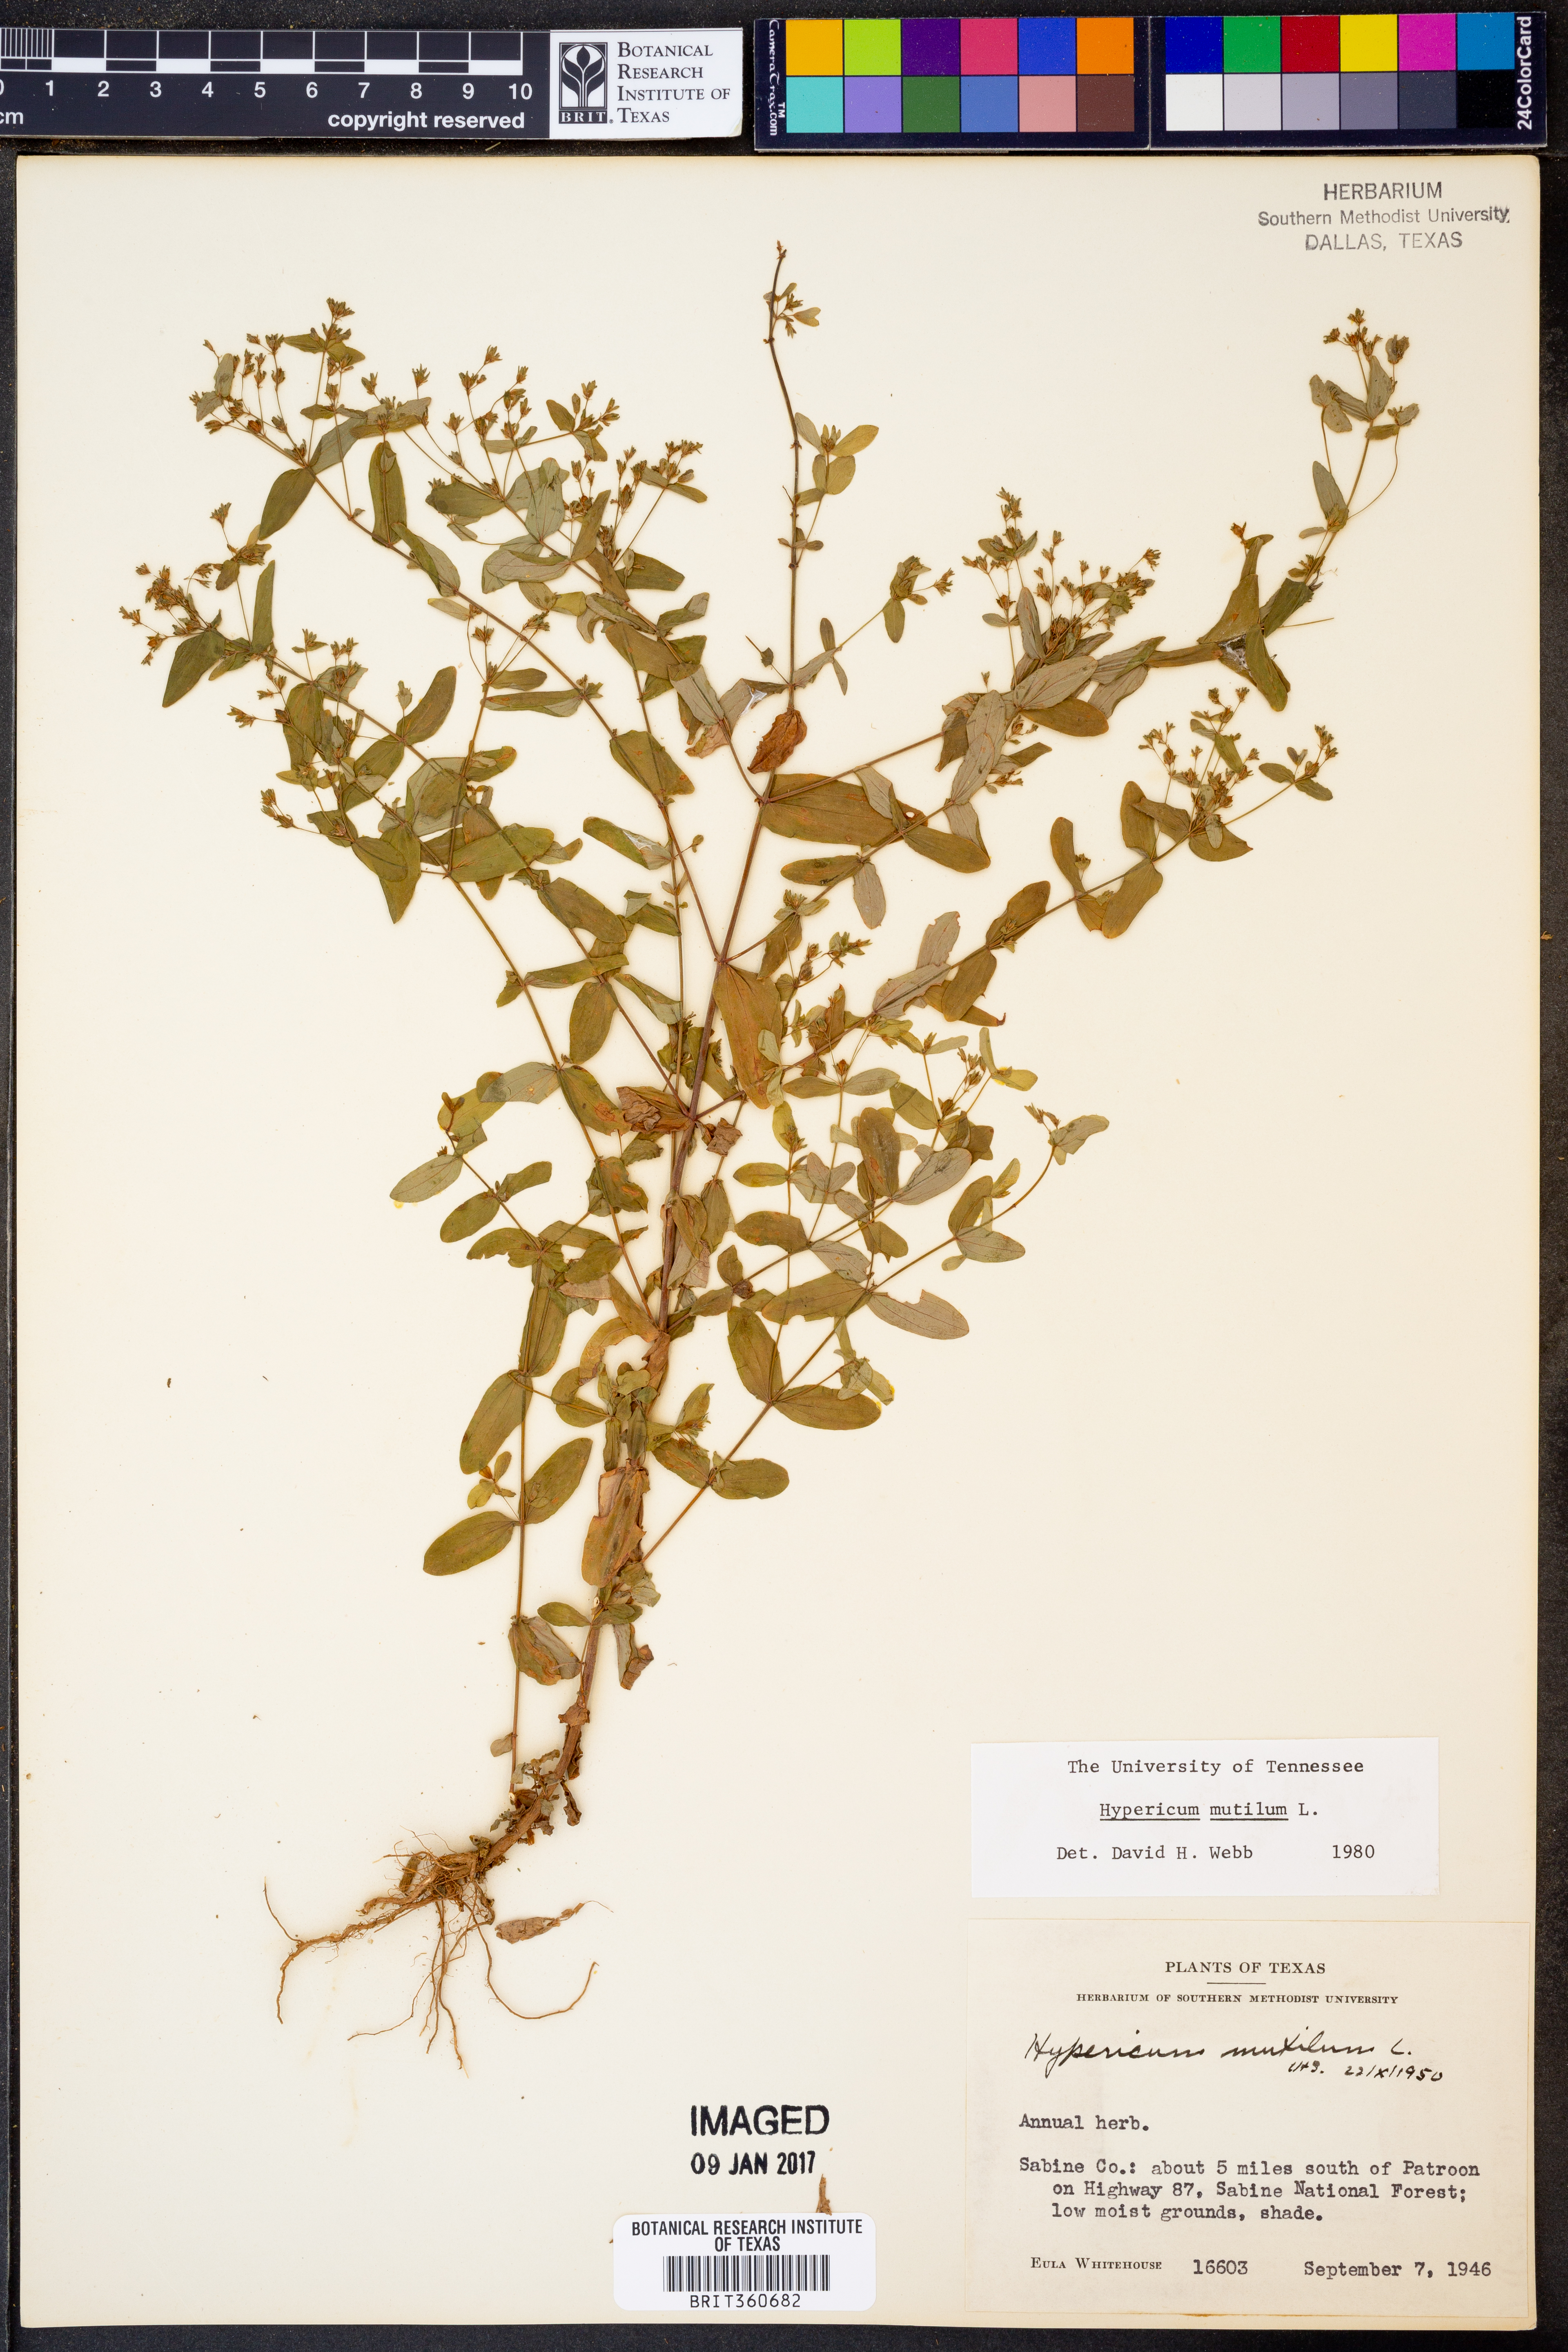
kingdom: Plantae
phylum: Tracheophyta
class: Magnoliopsida
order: Malpighiales
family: Hypericaceae
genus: Hypericum
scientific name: Hypericum mutilum
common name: Dwarf st. john's-wort
